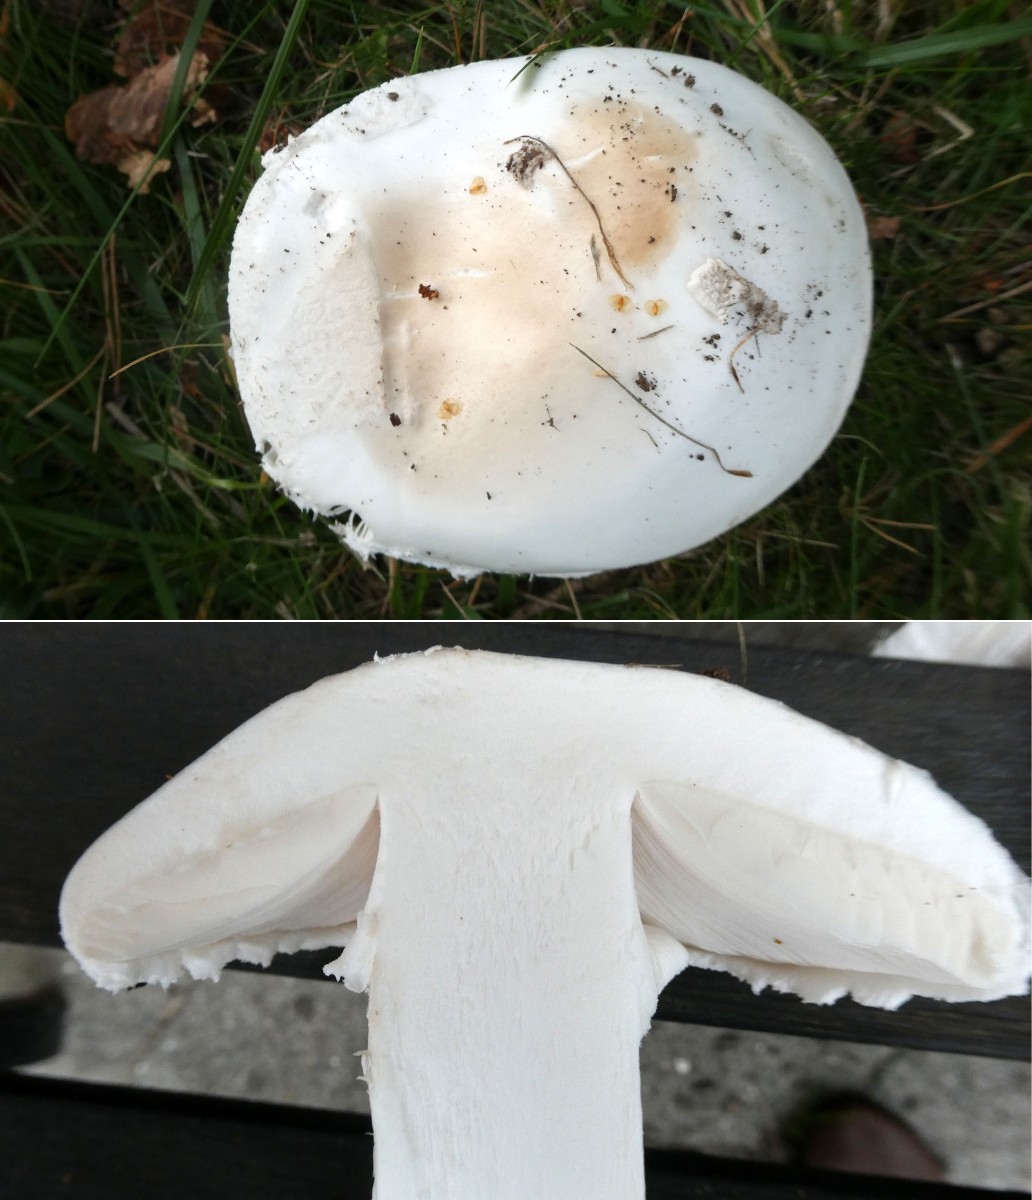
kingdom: Fungi
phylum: Basidiomycota
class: Agaricomycetes
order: Agaricales
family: Amanitaceae
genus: Amanita
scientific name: Amanita
